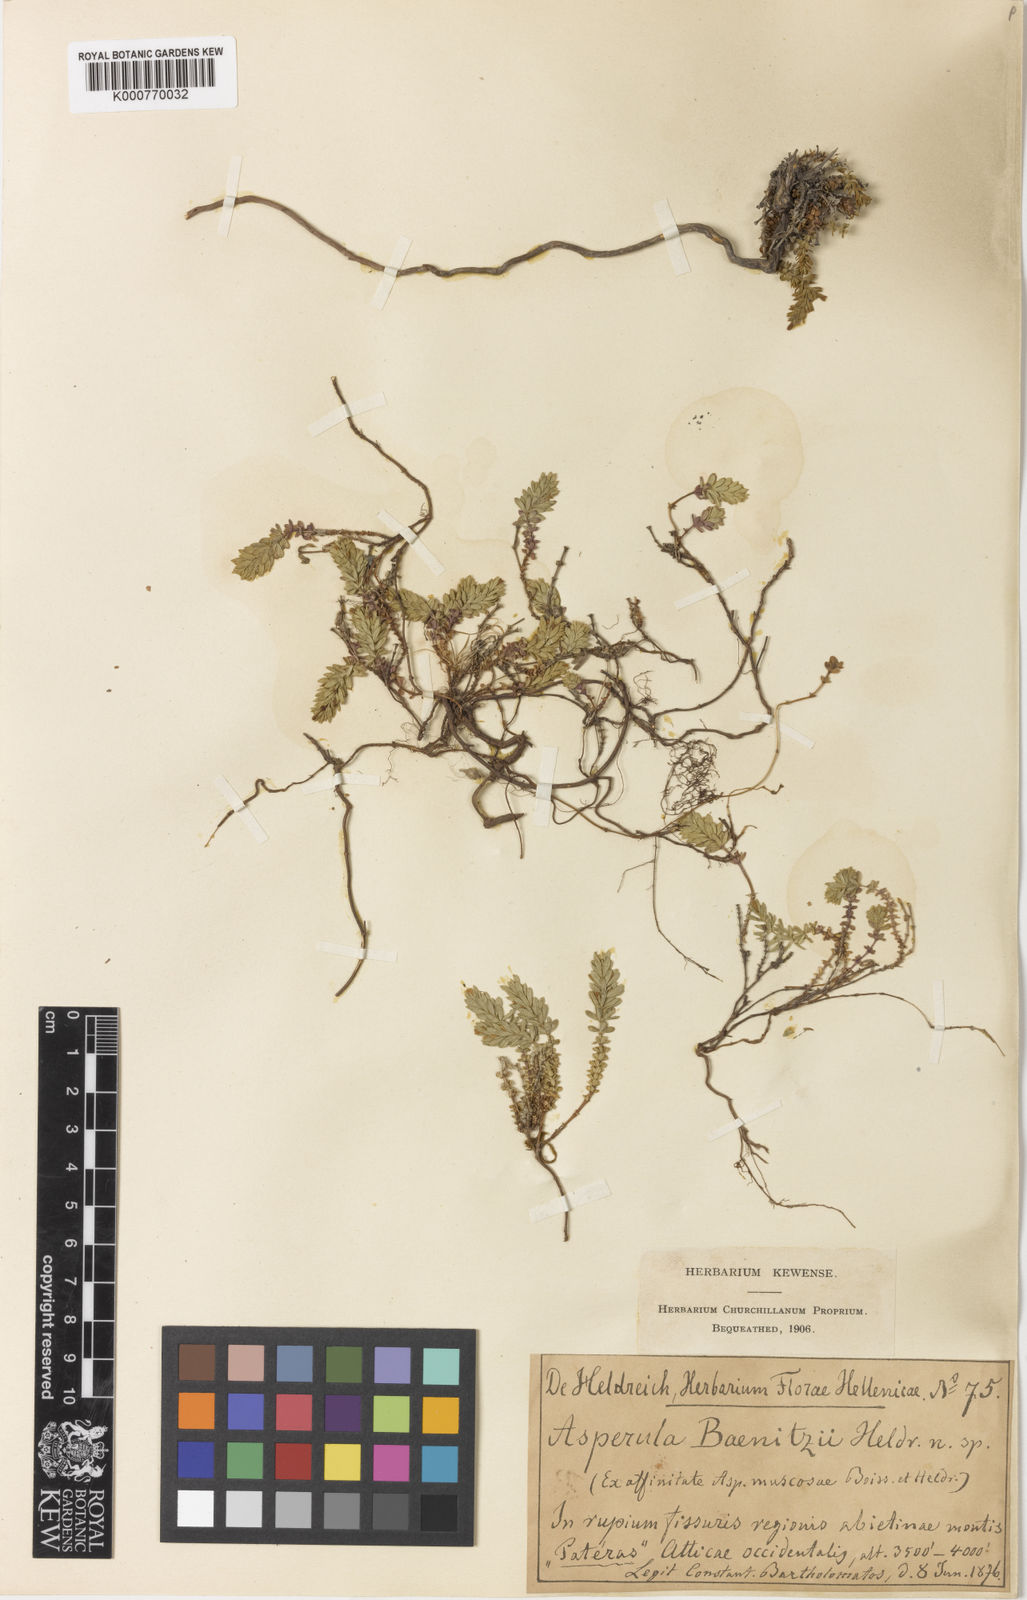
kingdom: Plantae
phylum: Tracheophyta
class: Magnoliopsida
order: Gentianales
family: Rubiaceae
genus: Thliphthisa
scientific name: Thliphthisa baenitzii
